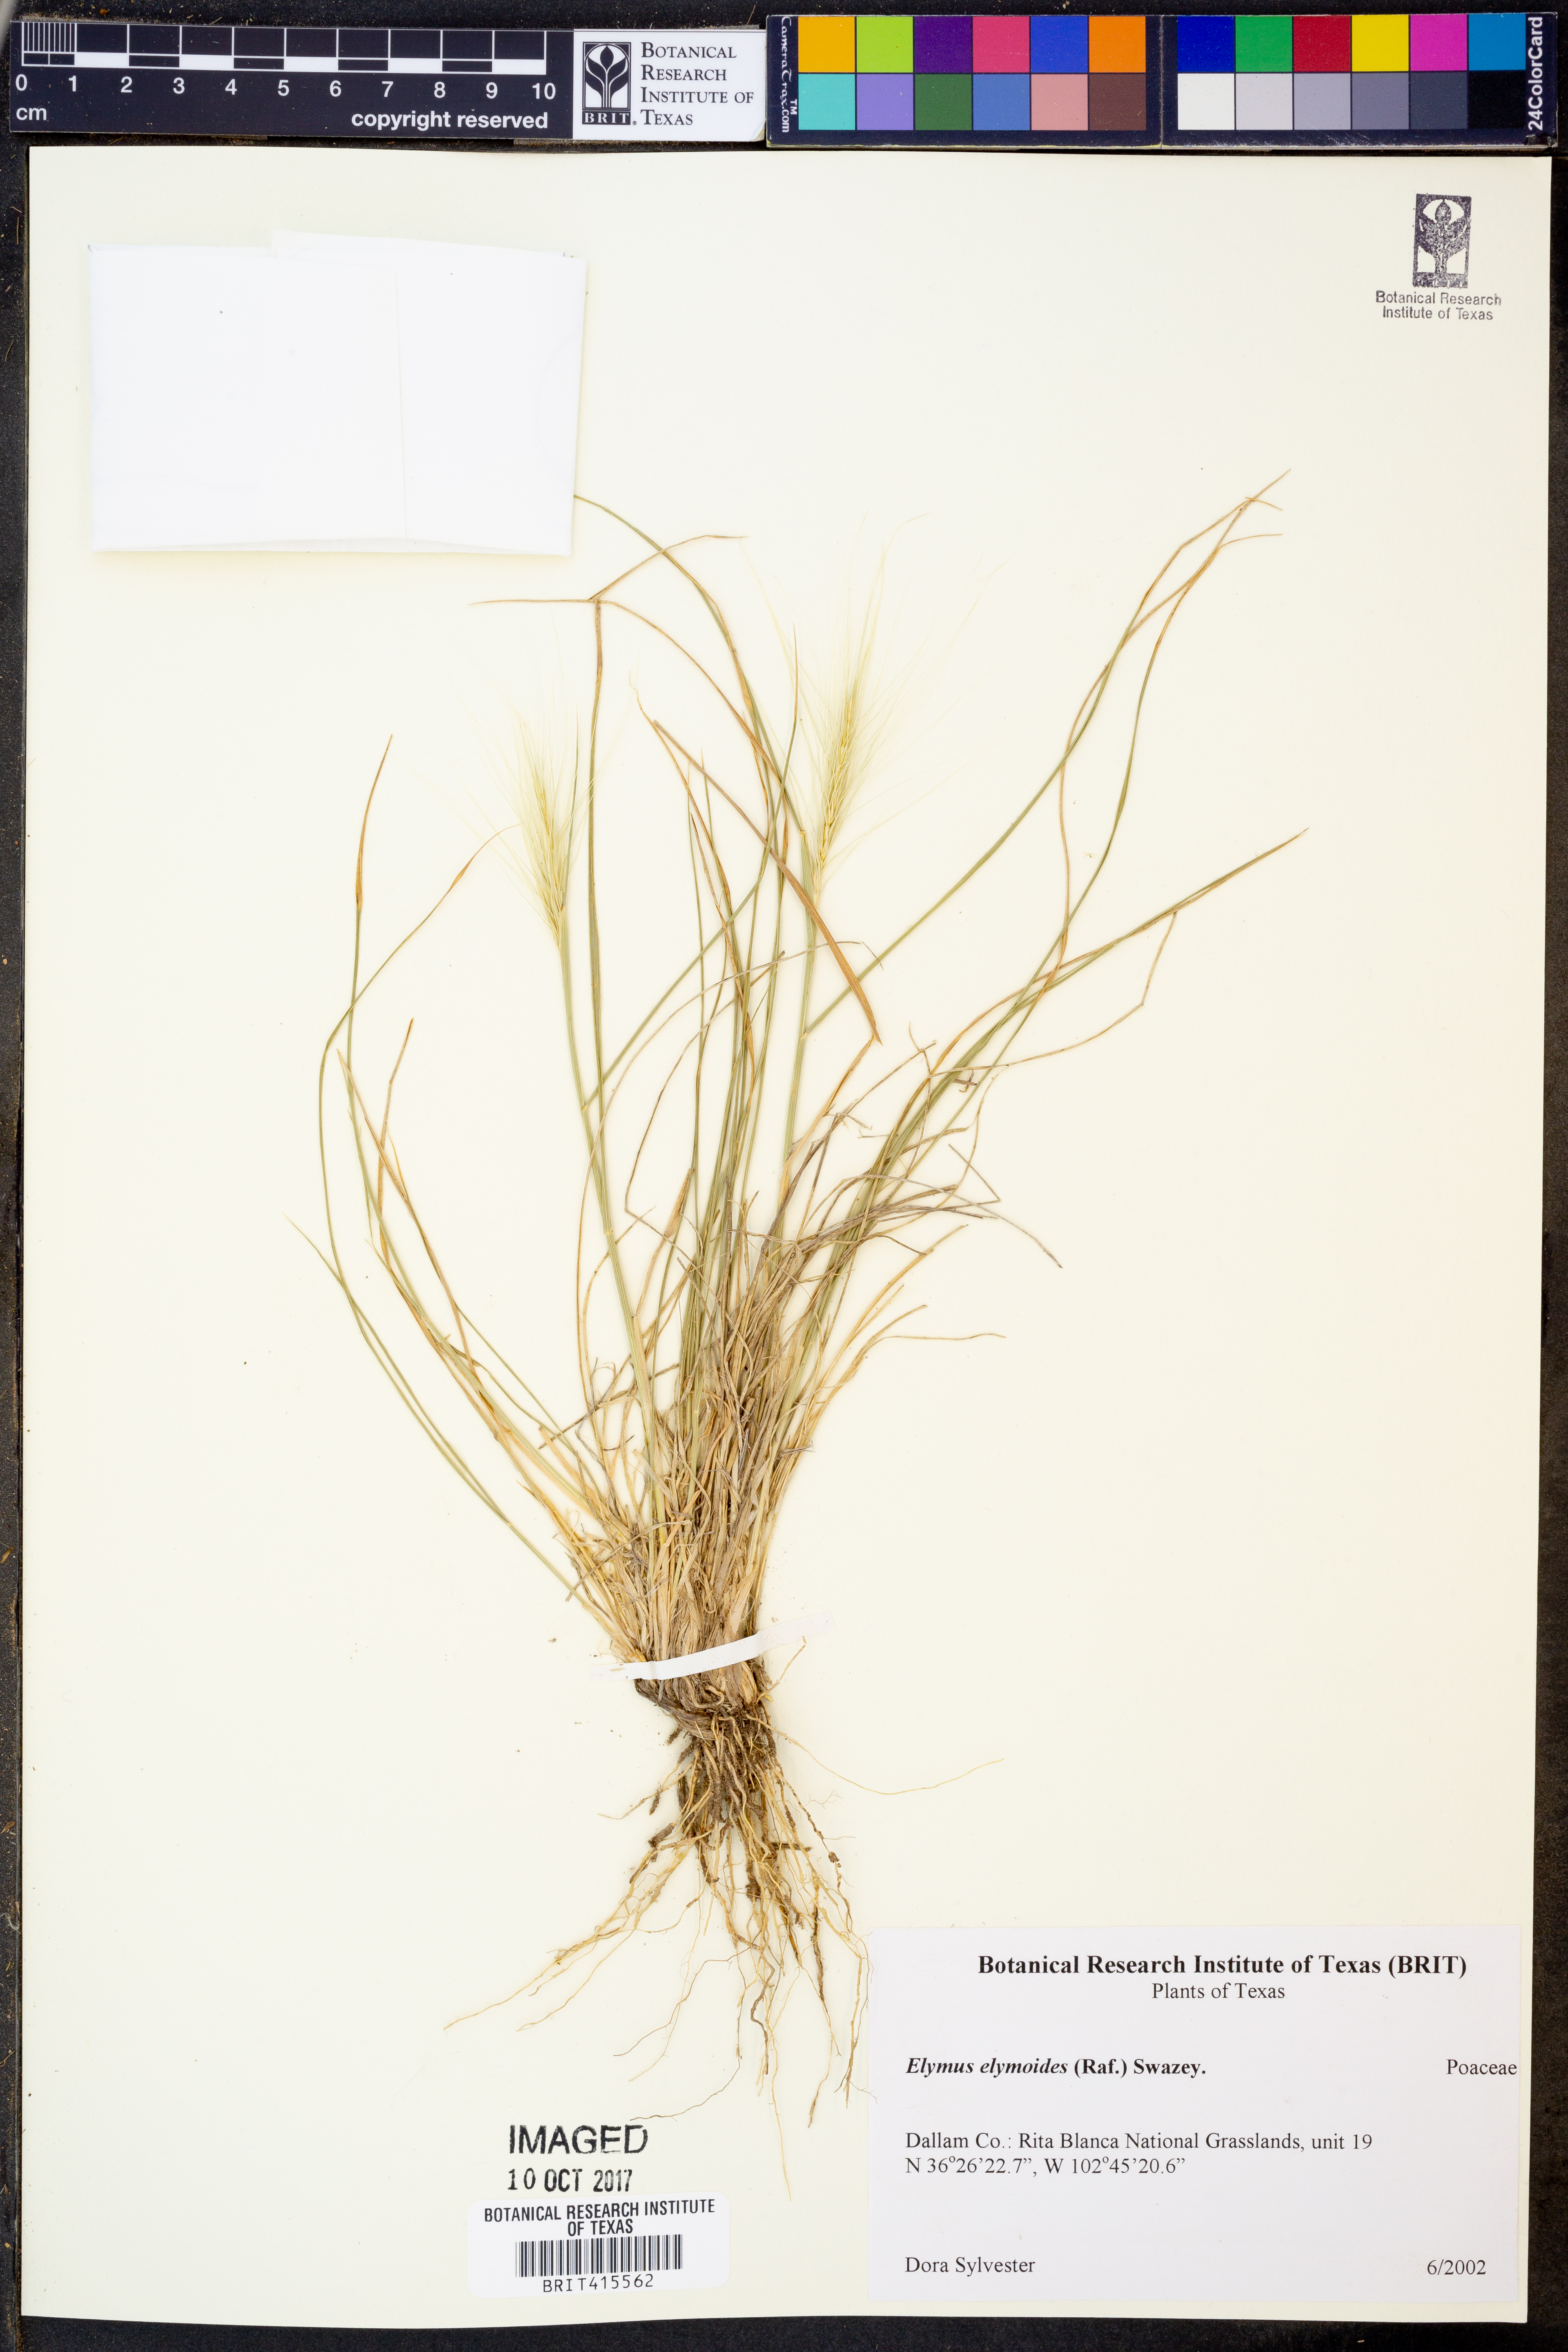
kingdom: Plantae
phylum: Tracheophyta
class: Liliopsida
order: Poales
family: Poaceae
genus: Elymus
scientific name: Elymus elymoides
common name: Bottlebrush squirreltail
